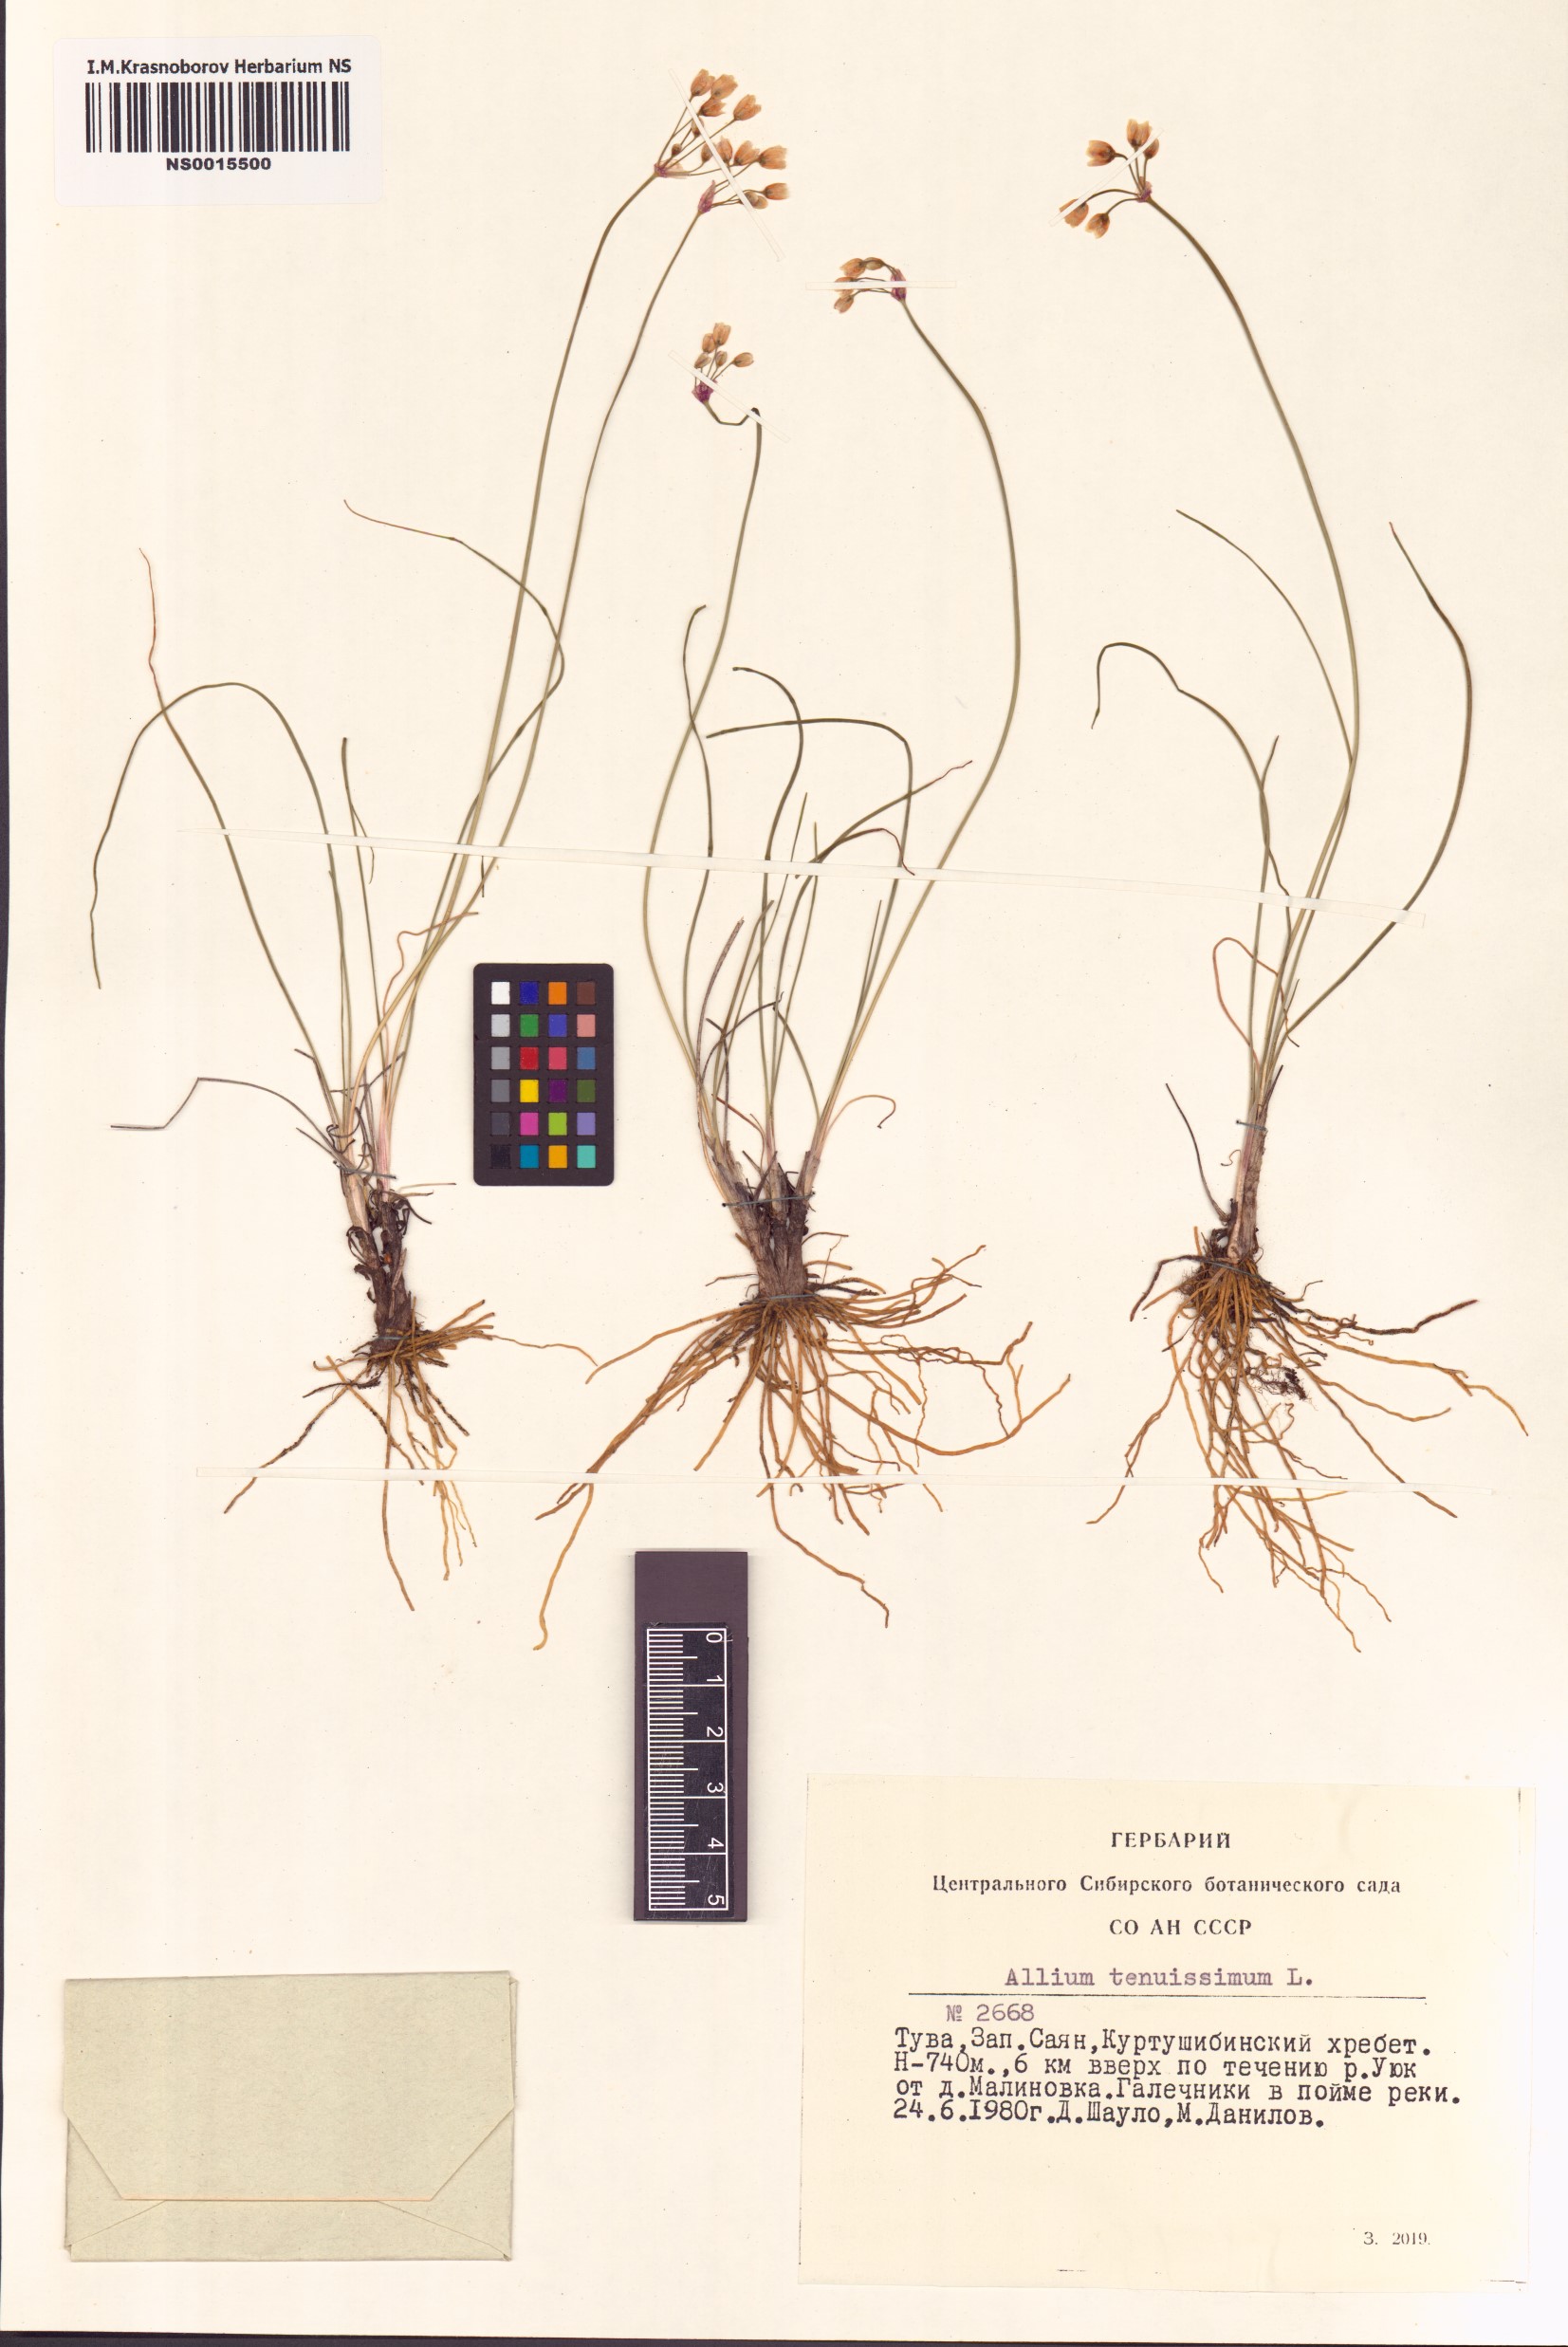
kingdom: Plantae
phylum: Tracheophyta
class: Liliopsida
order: Asparagales
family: Amaryllidaceae
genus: Allium
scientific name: Allium tenuissimum
